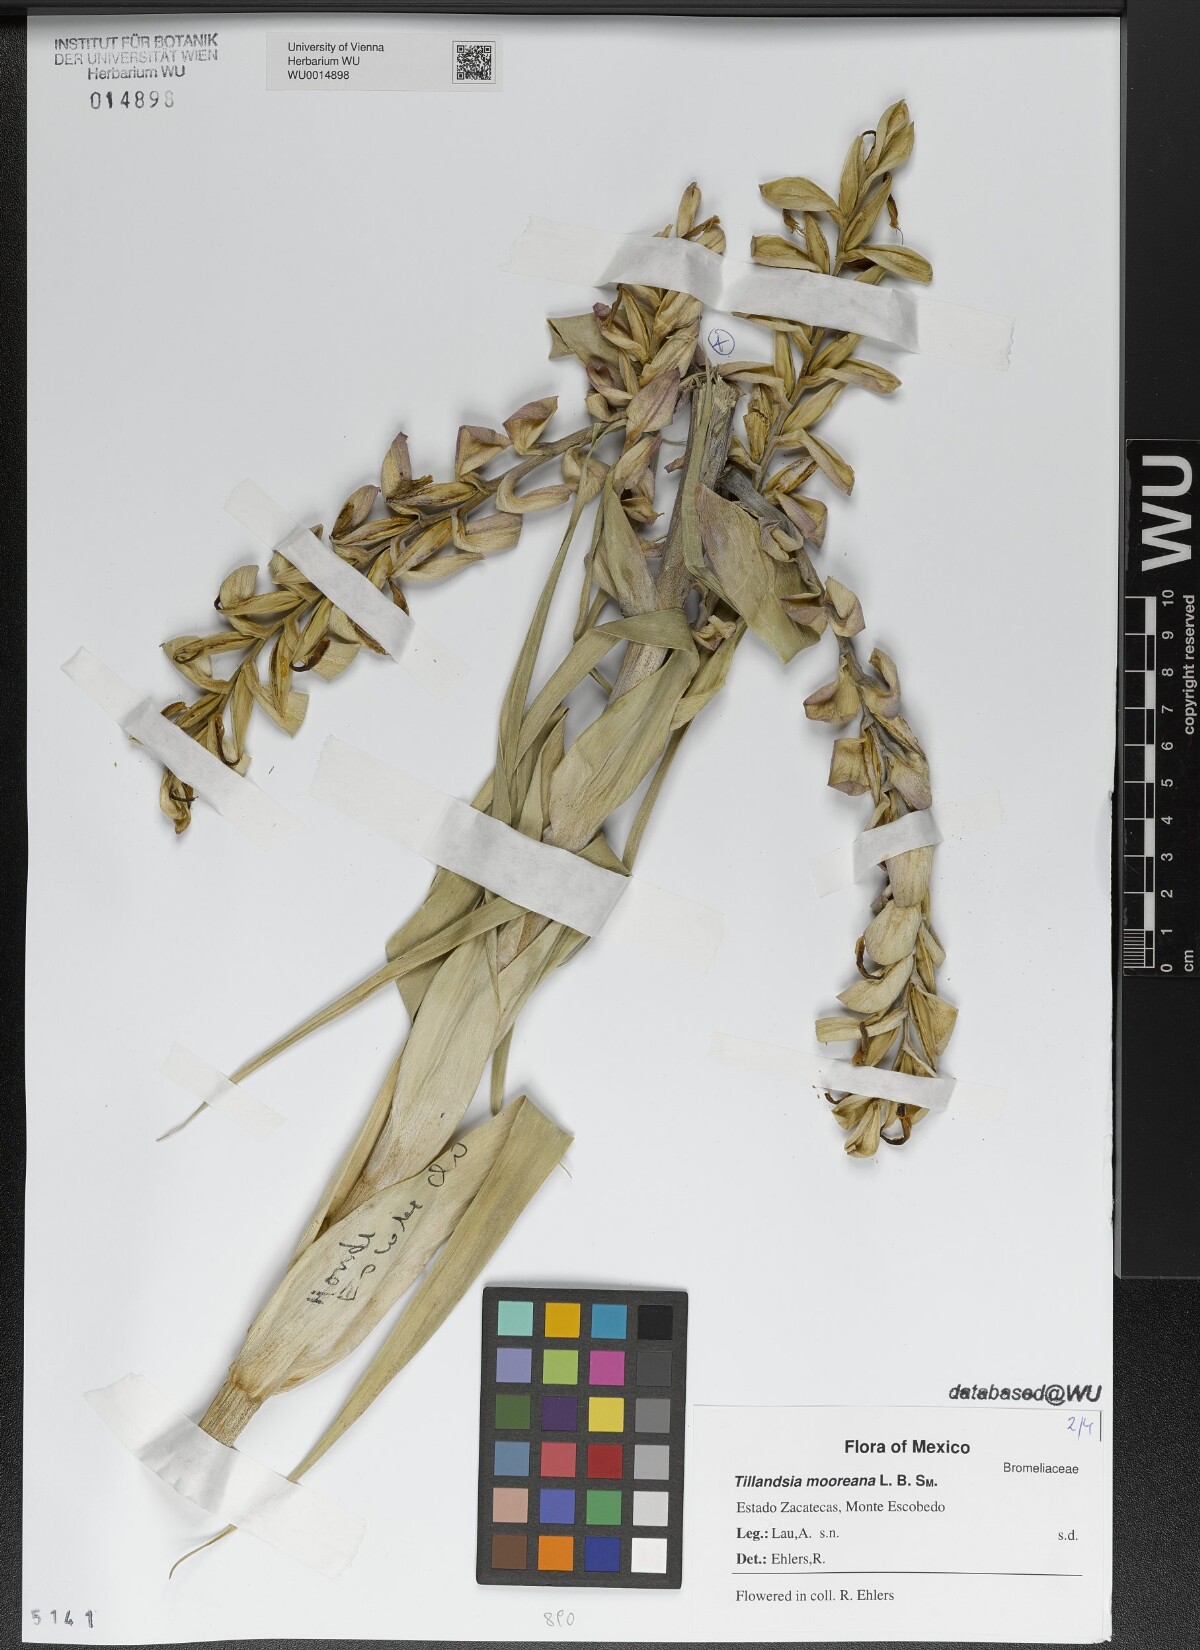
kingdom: Plantae
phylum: Tracheophyta
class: Liliopsida
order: Poales
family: Bromeliaceae
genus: Tillandsia
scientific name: Tillandsia mooreana
